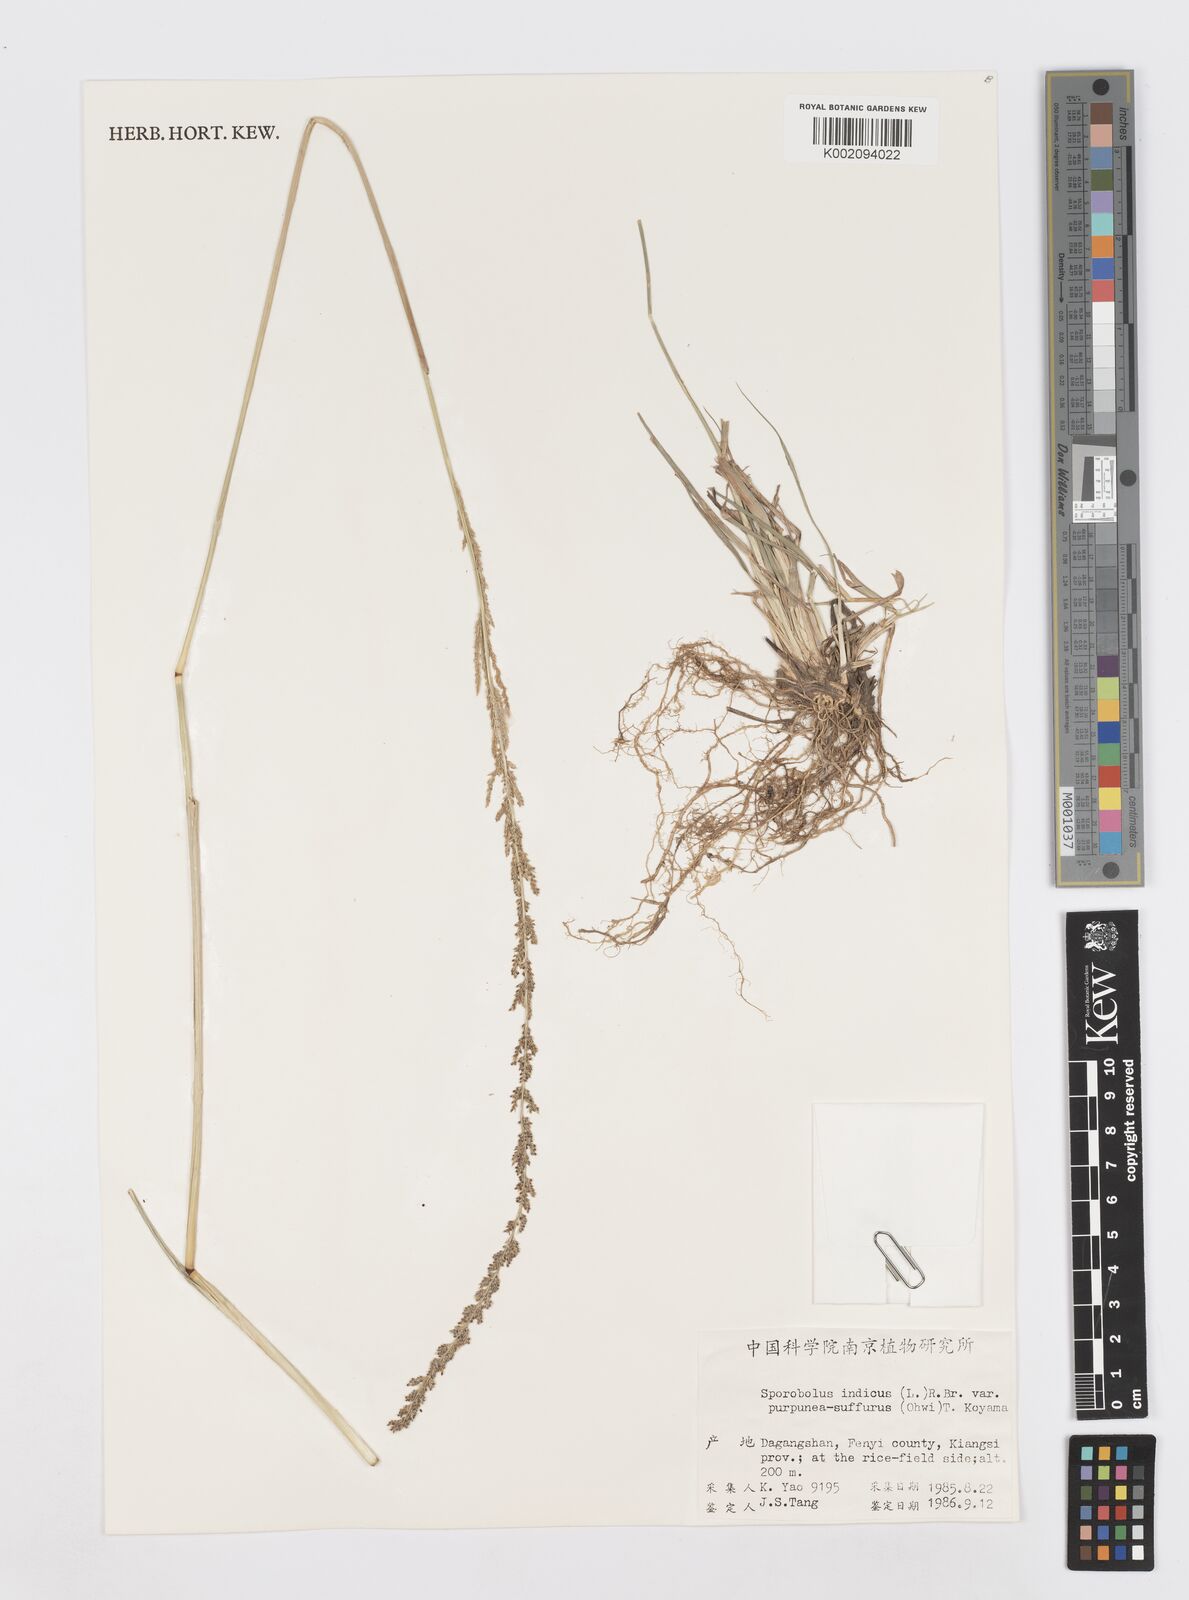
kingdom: Plantae
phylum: Tracheophyta
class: Liliopsida
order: Poales
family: Poaceae
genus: Sporobolus
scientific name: Sporobolus fertilis
